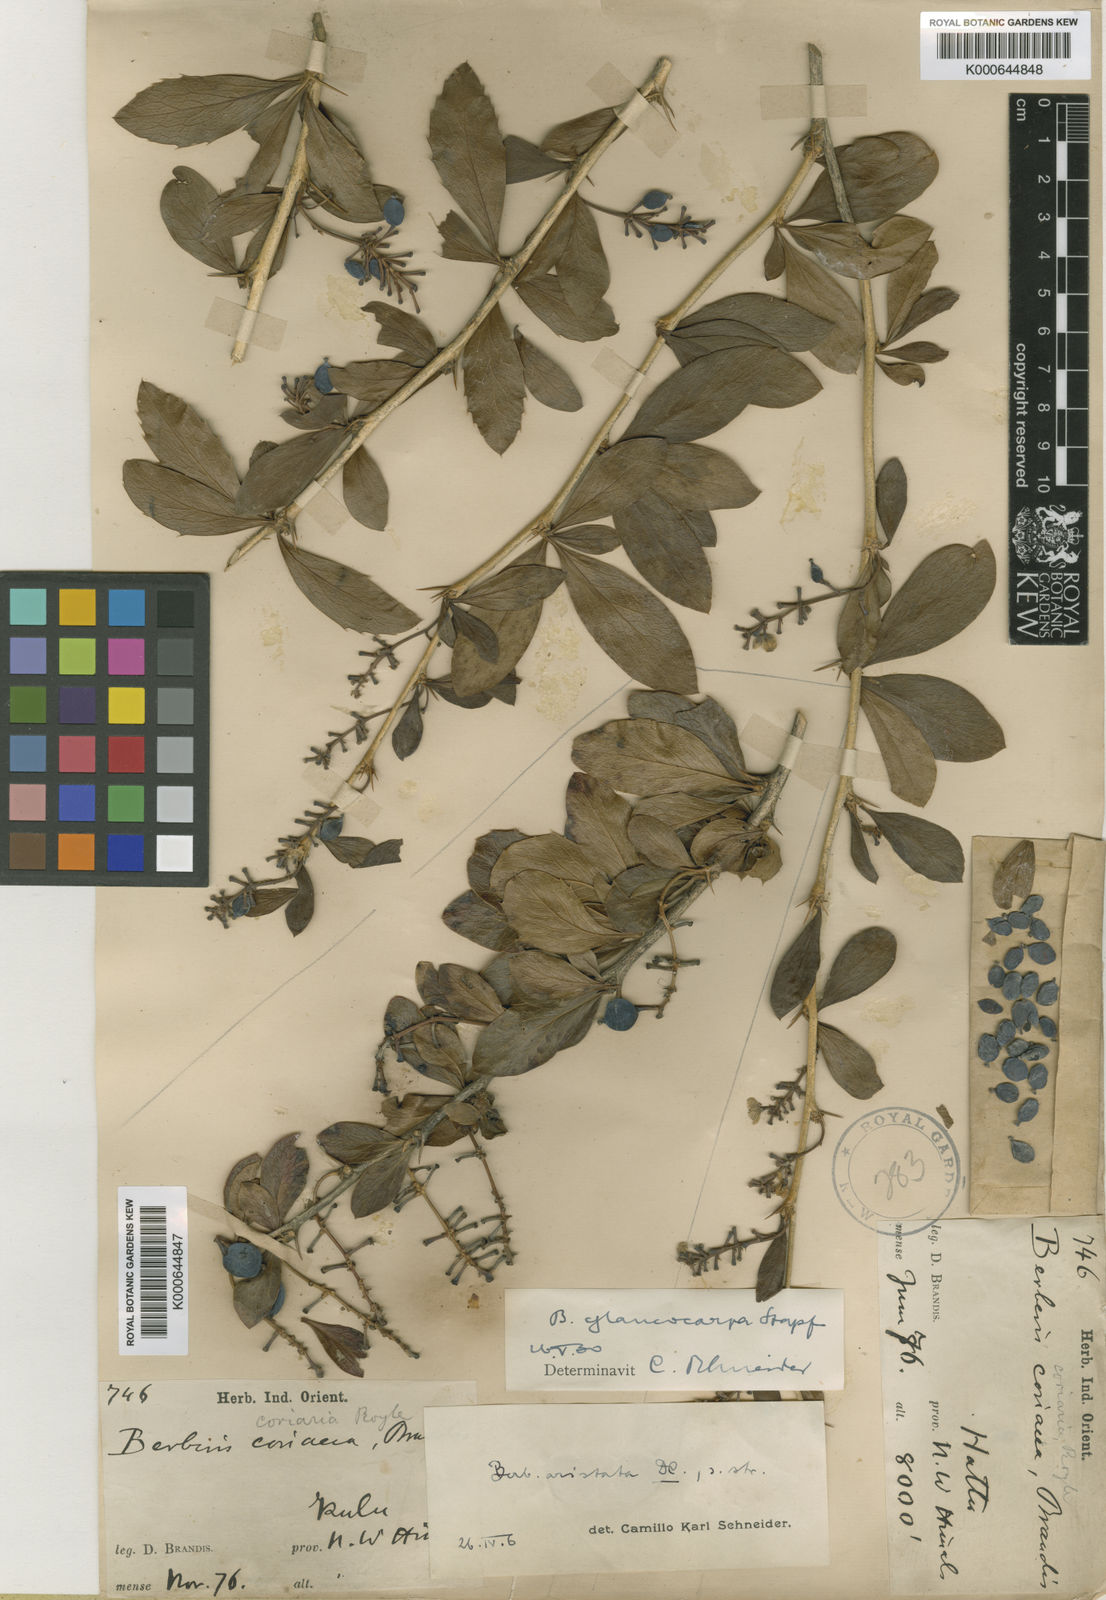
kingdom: Plantae
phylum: Tracheophyta
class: Magnoliopsida
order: Ranunculales
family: Berberidaceae
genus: Berberis
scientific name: Berberis aristata
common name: Indian barberry
